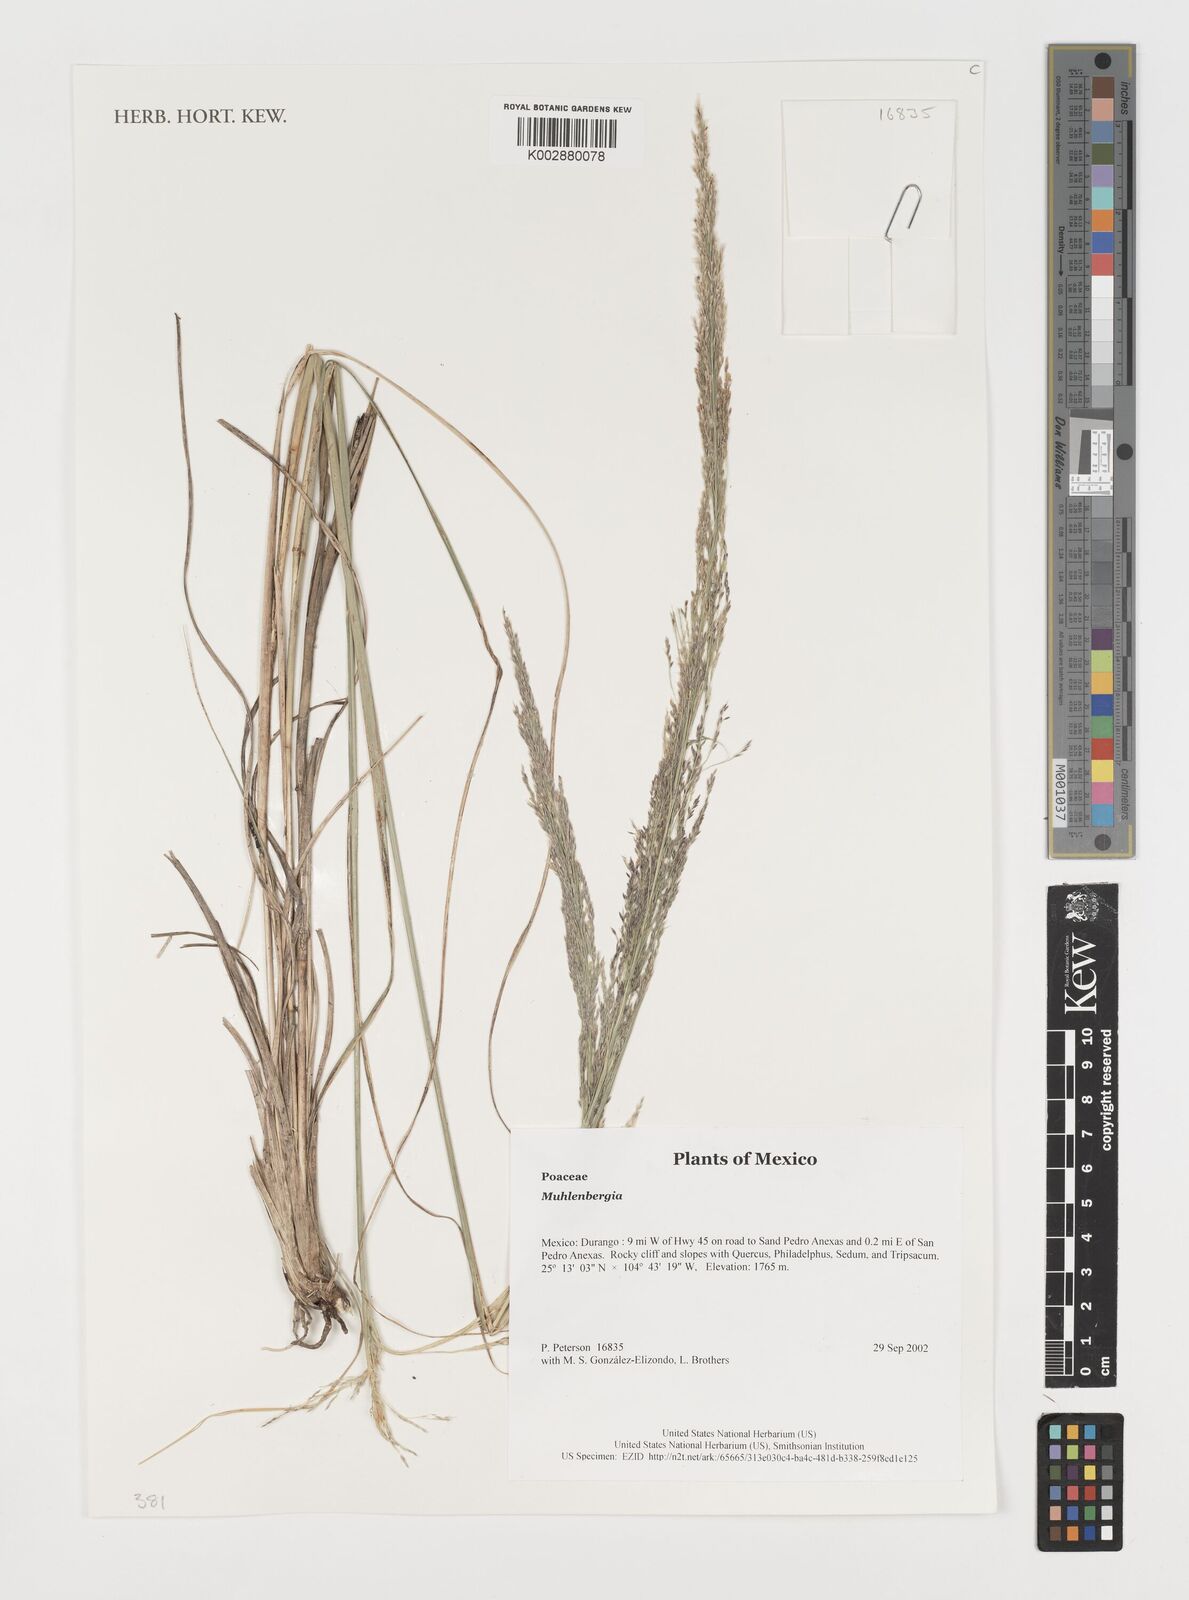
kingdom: Plantae
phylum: Tracheophyta
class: Liliopsida
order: Poales
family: Poaceae
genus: Muhlenbergia
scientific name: Muhlenbergia
